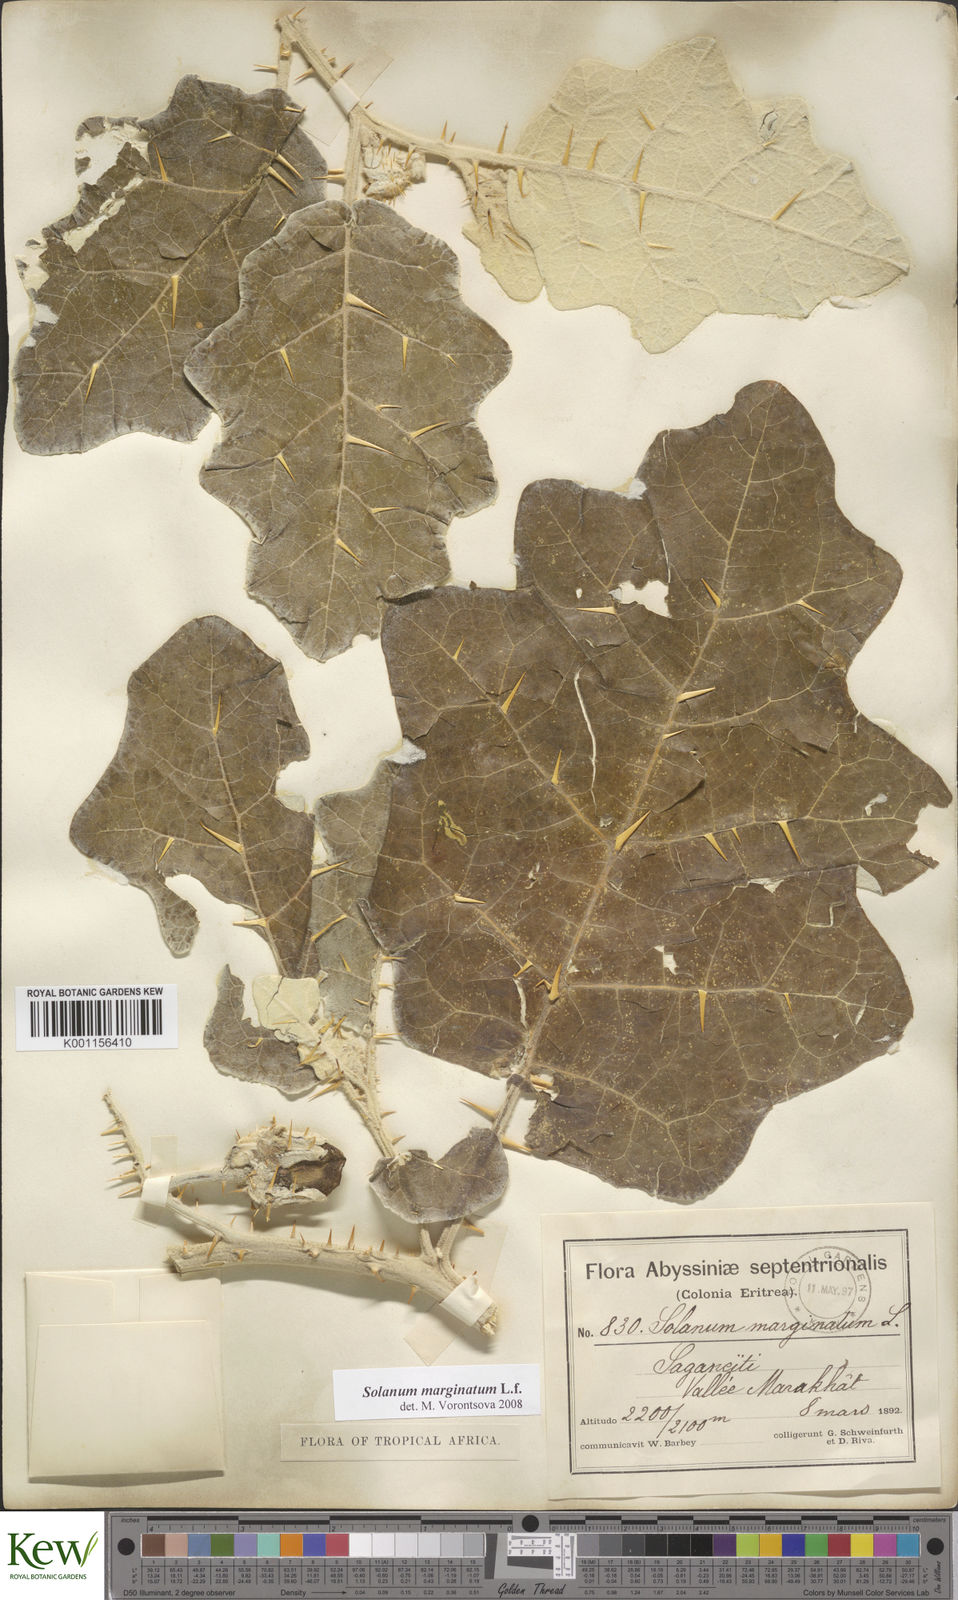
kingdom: Plantae
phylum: Tracheophyta
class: Magnoliopsida
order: Solanales
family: Solanaceae
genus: Solanum
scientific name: Solanum marginatum
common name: Purple african nightshade
